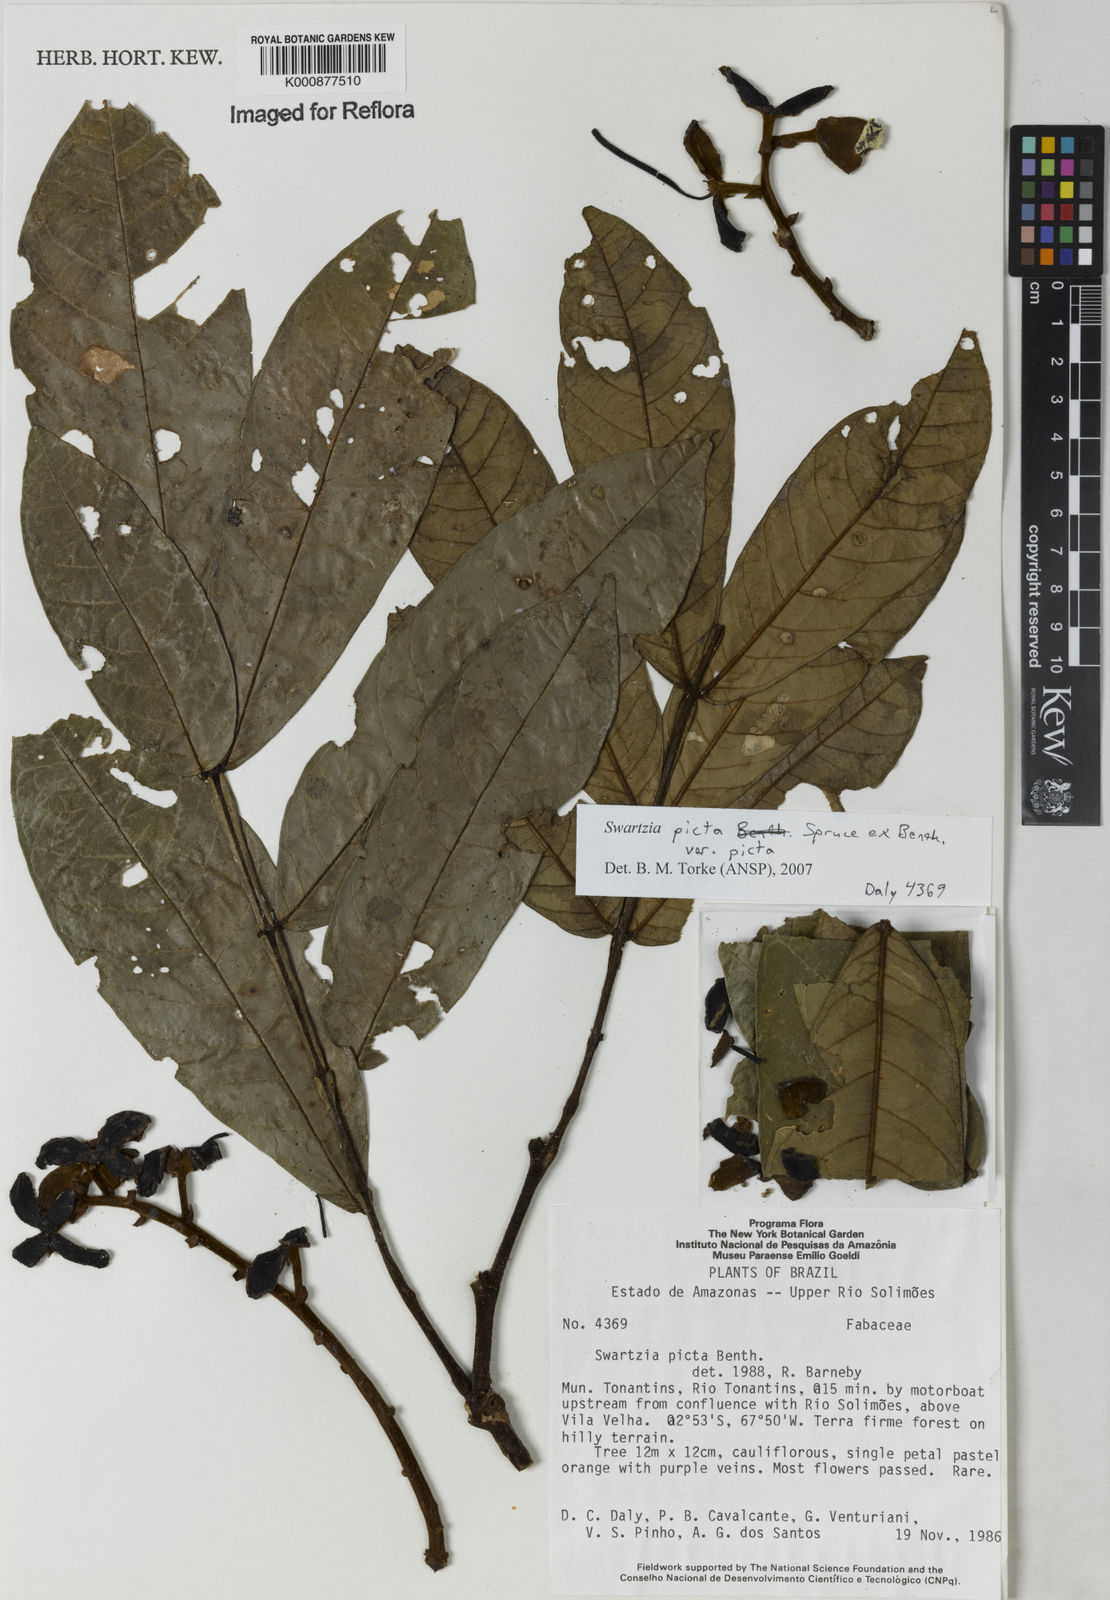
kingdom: Plantae
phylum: Tracheophyta
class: Magnoliopsida
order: Fabales
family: Fabaceae
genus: Swartzia
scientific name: Swartzia picta
